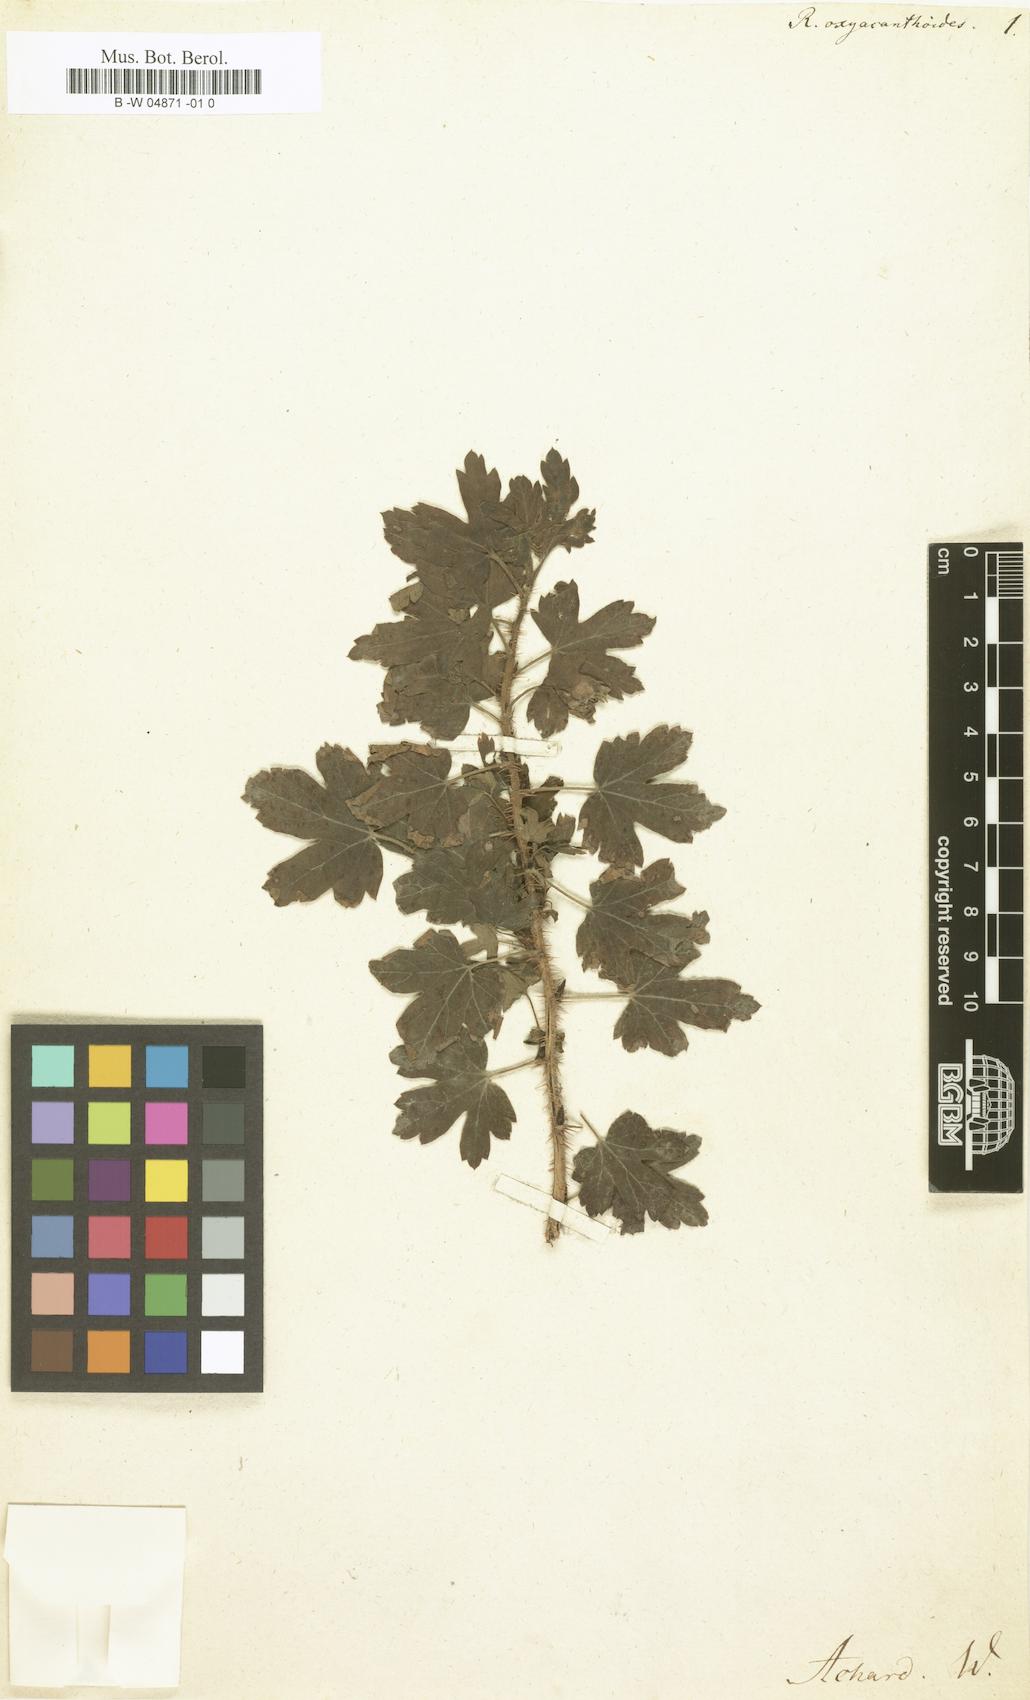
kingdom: Plantae
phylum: Tracheophyta
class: Magnoliopsida
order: Saxifragales
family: Grossulariaceae
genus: Ribes
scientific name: Ribes oxyacanthoides
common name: Northern gooseberry
